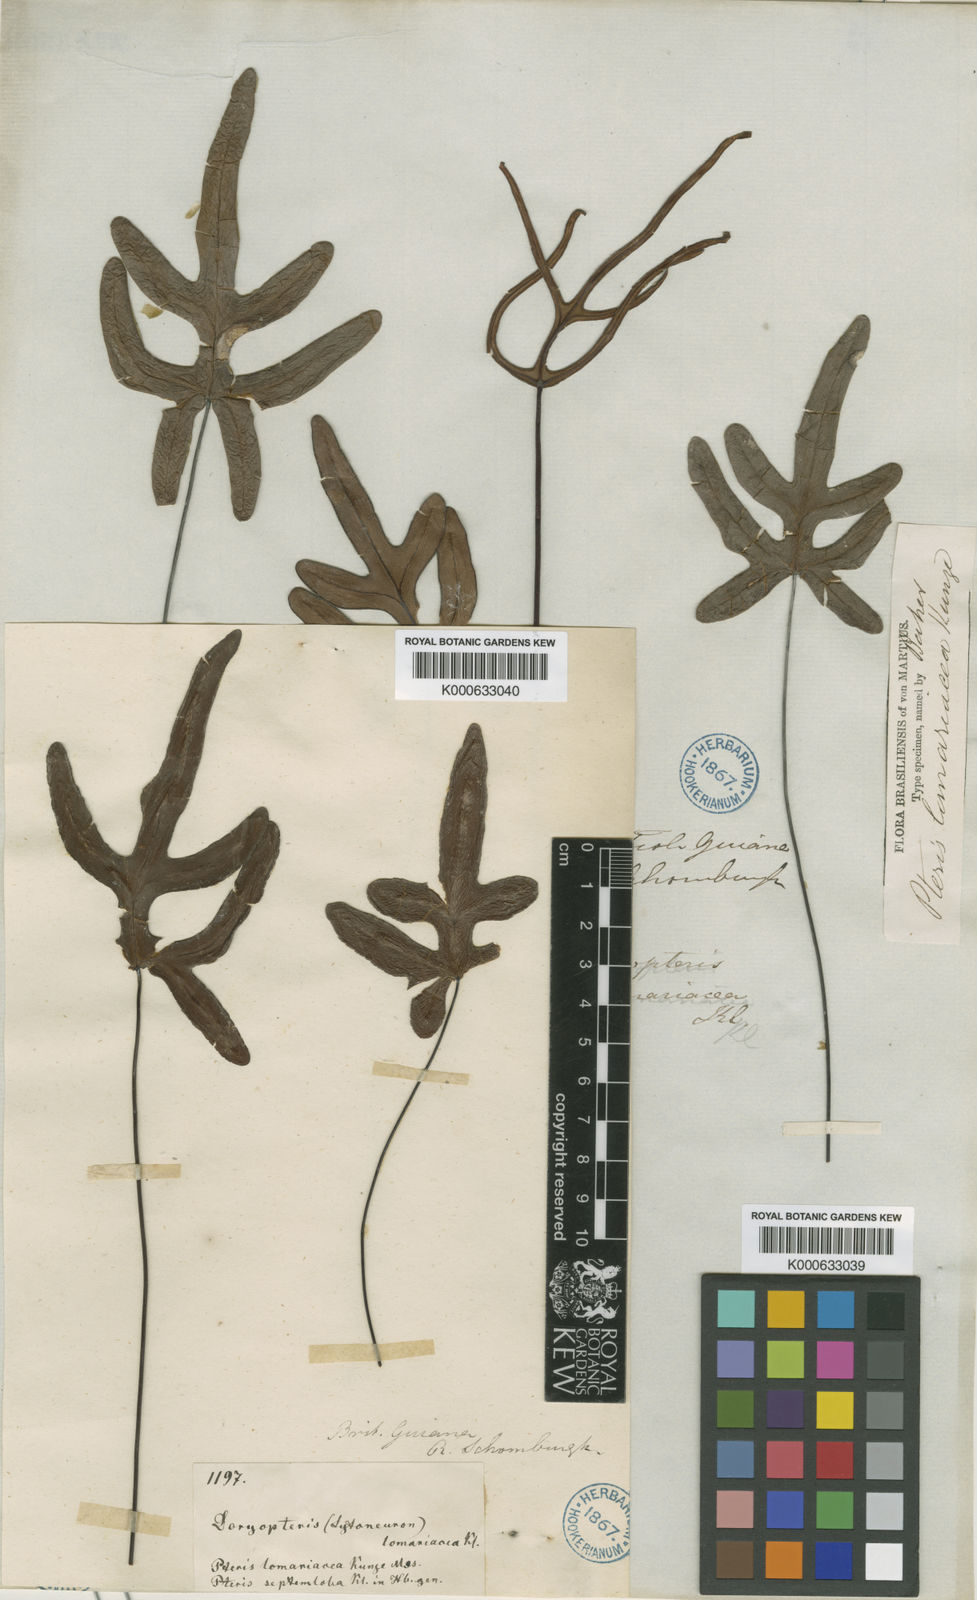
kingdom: Plantae
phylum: Tracheophyta
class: Polypodiopsida
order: Polypodiales
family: Pteridaceae
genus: Doryopteris
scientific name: Doryopteris
